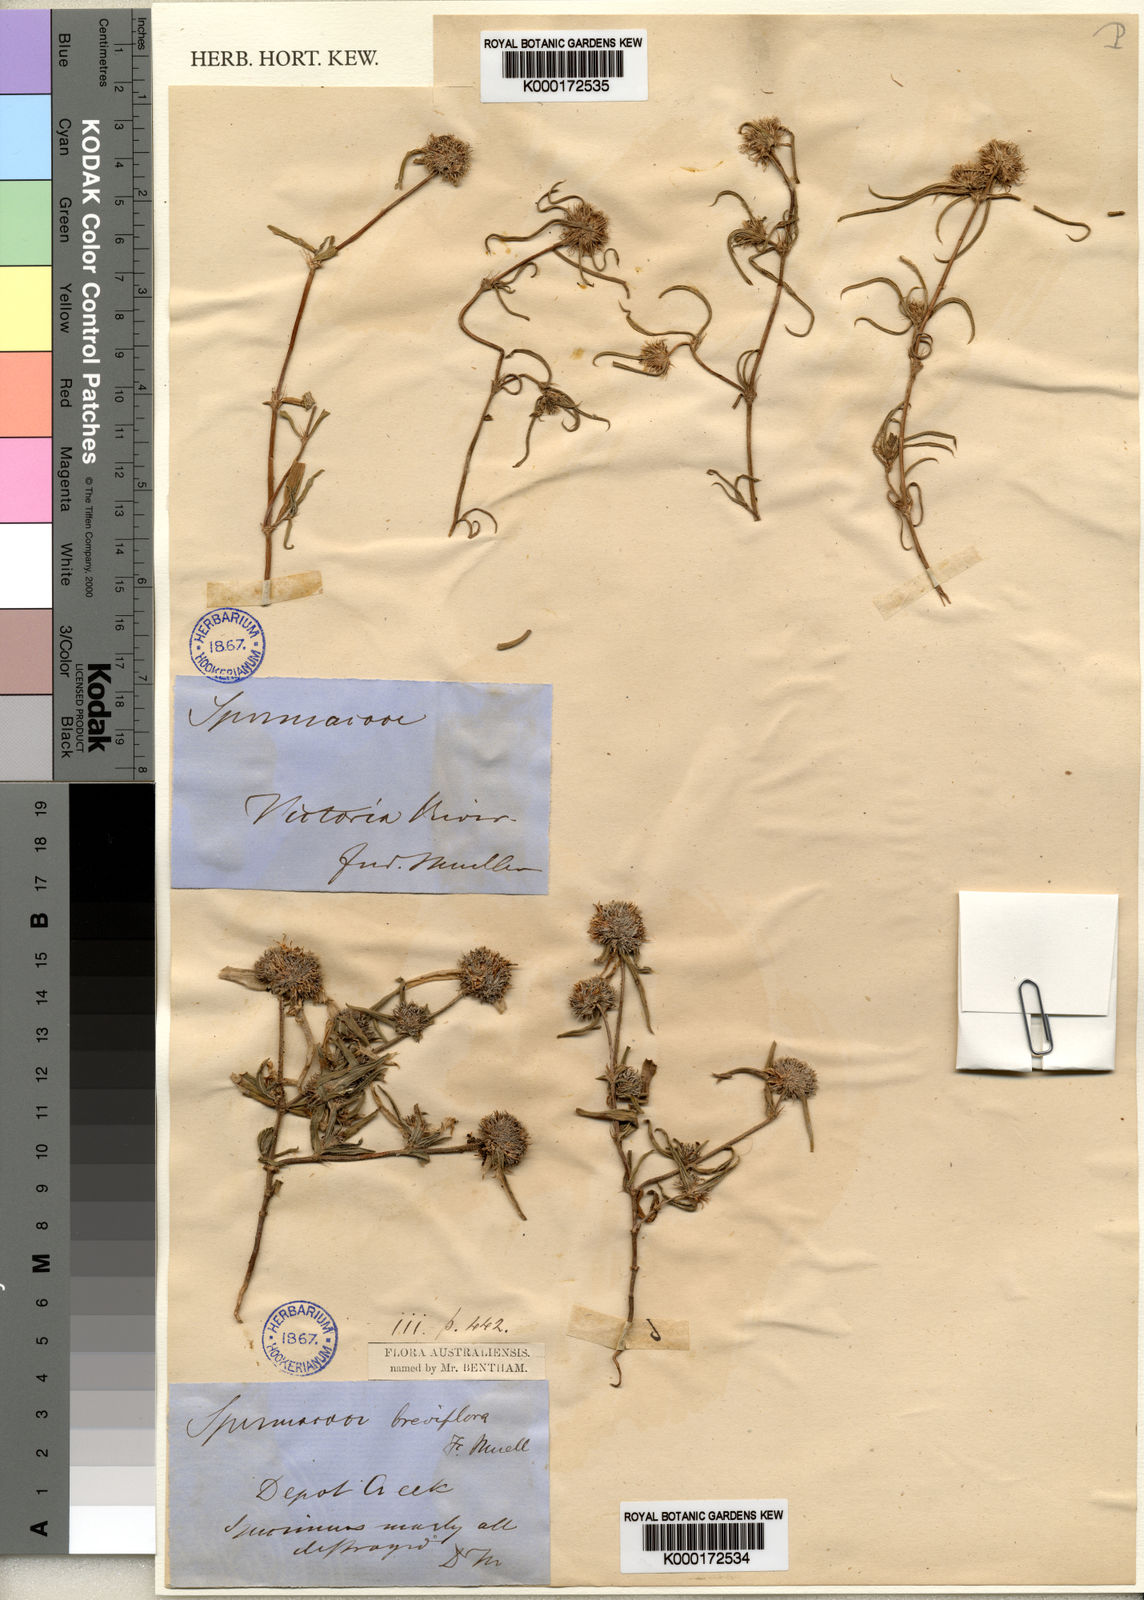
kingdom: Plantae
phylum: Tracheophyta
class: Magnoliopsida
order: Gentianales
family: Rubiaceae
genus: Spermacoce
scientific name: Spermacoce breviflora
